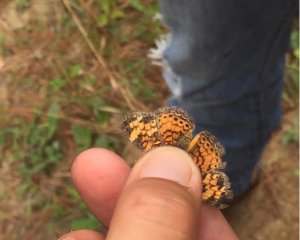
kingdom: Animalia
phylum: Arthropoda
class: Insecta
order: Lepidoptera
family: Nymphalidae
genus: Phyciodes
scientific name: Phyciodes tharos
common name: Pearl Crescent
